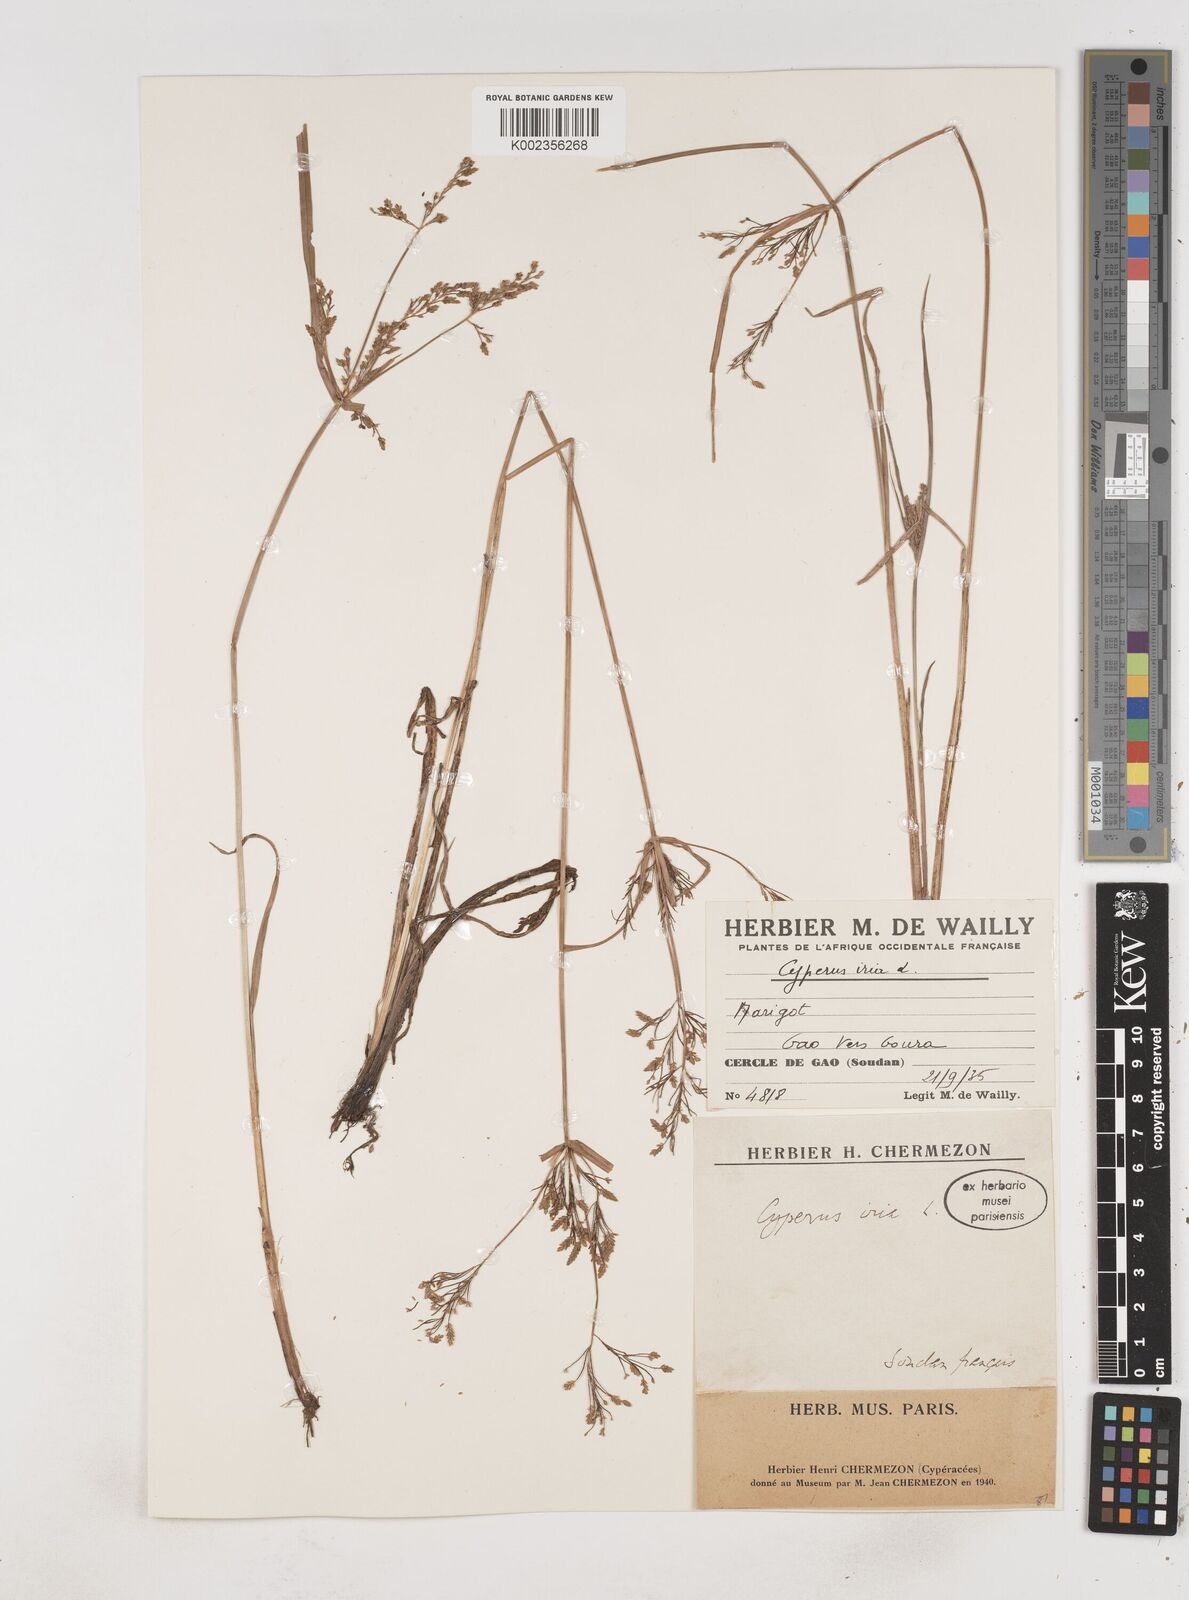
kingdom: Plantae
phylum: Tracheophyta
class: Liliopsida
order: Poales
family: Cyperaceae
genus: Cyperus
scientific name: Cyperus iria
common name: Ricefield flatsedge
